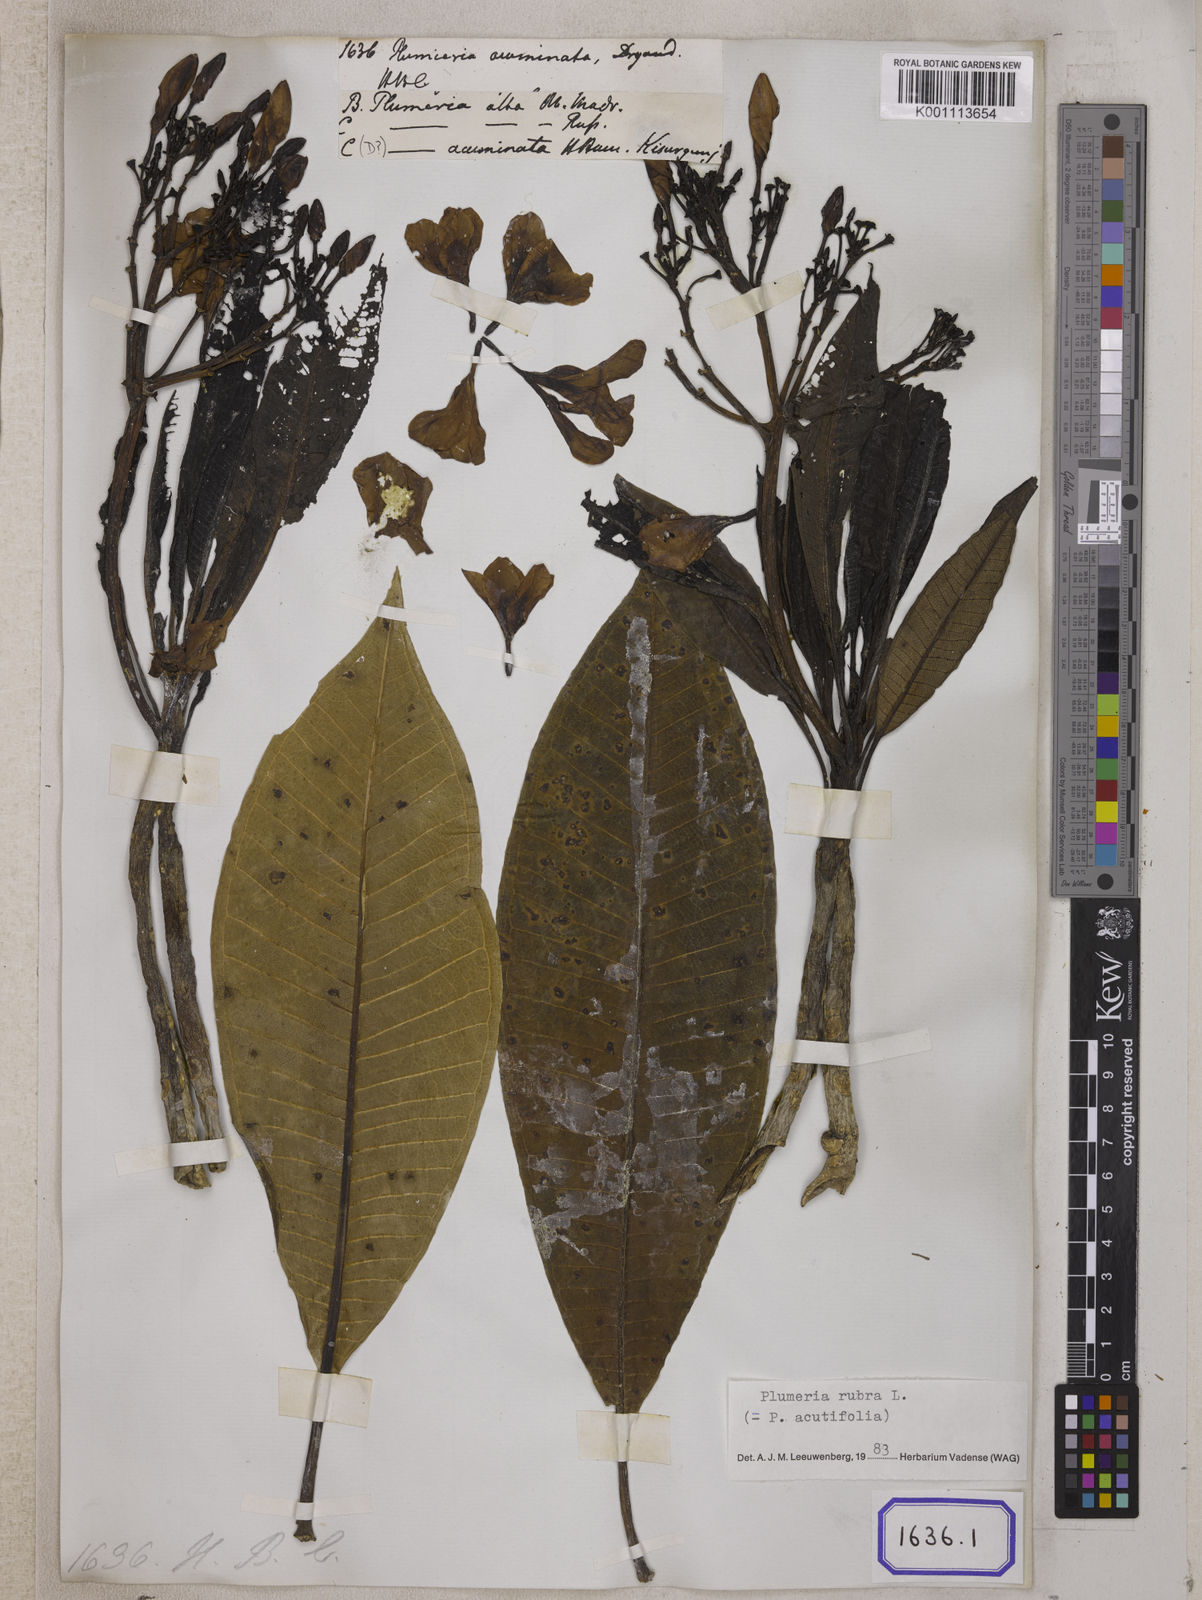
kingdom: Plantae
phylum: Tracheophyta
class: Magnoliopsida
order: Gentianales
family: Apocynaceae
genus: Plumeria
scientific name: Plumeria rubra
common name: Pagoda-tree
